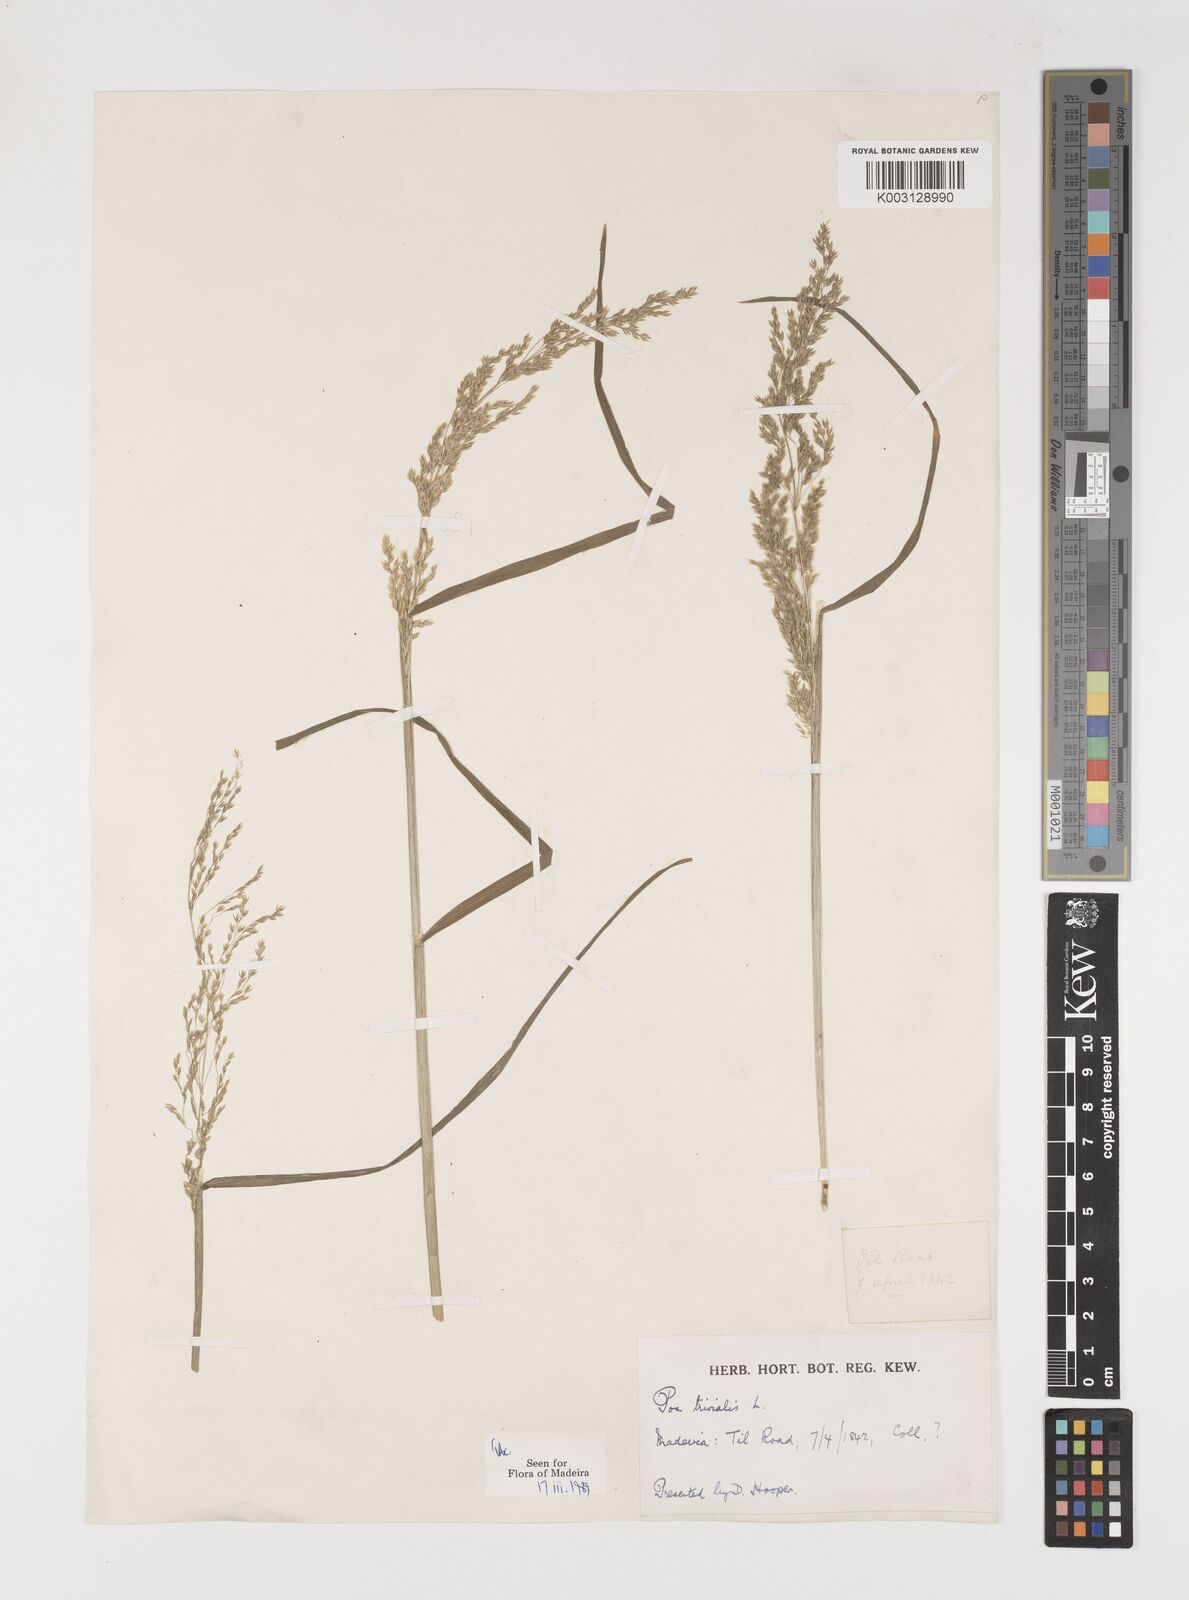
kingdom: Plantae
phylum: Tracheophyta
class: Liliopsida
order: Poales
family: Poaceae
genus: Poa
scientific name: Poa trivialis
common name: Rough bluegrass
